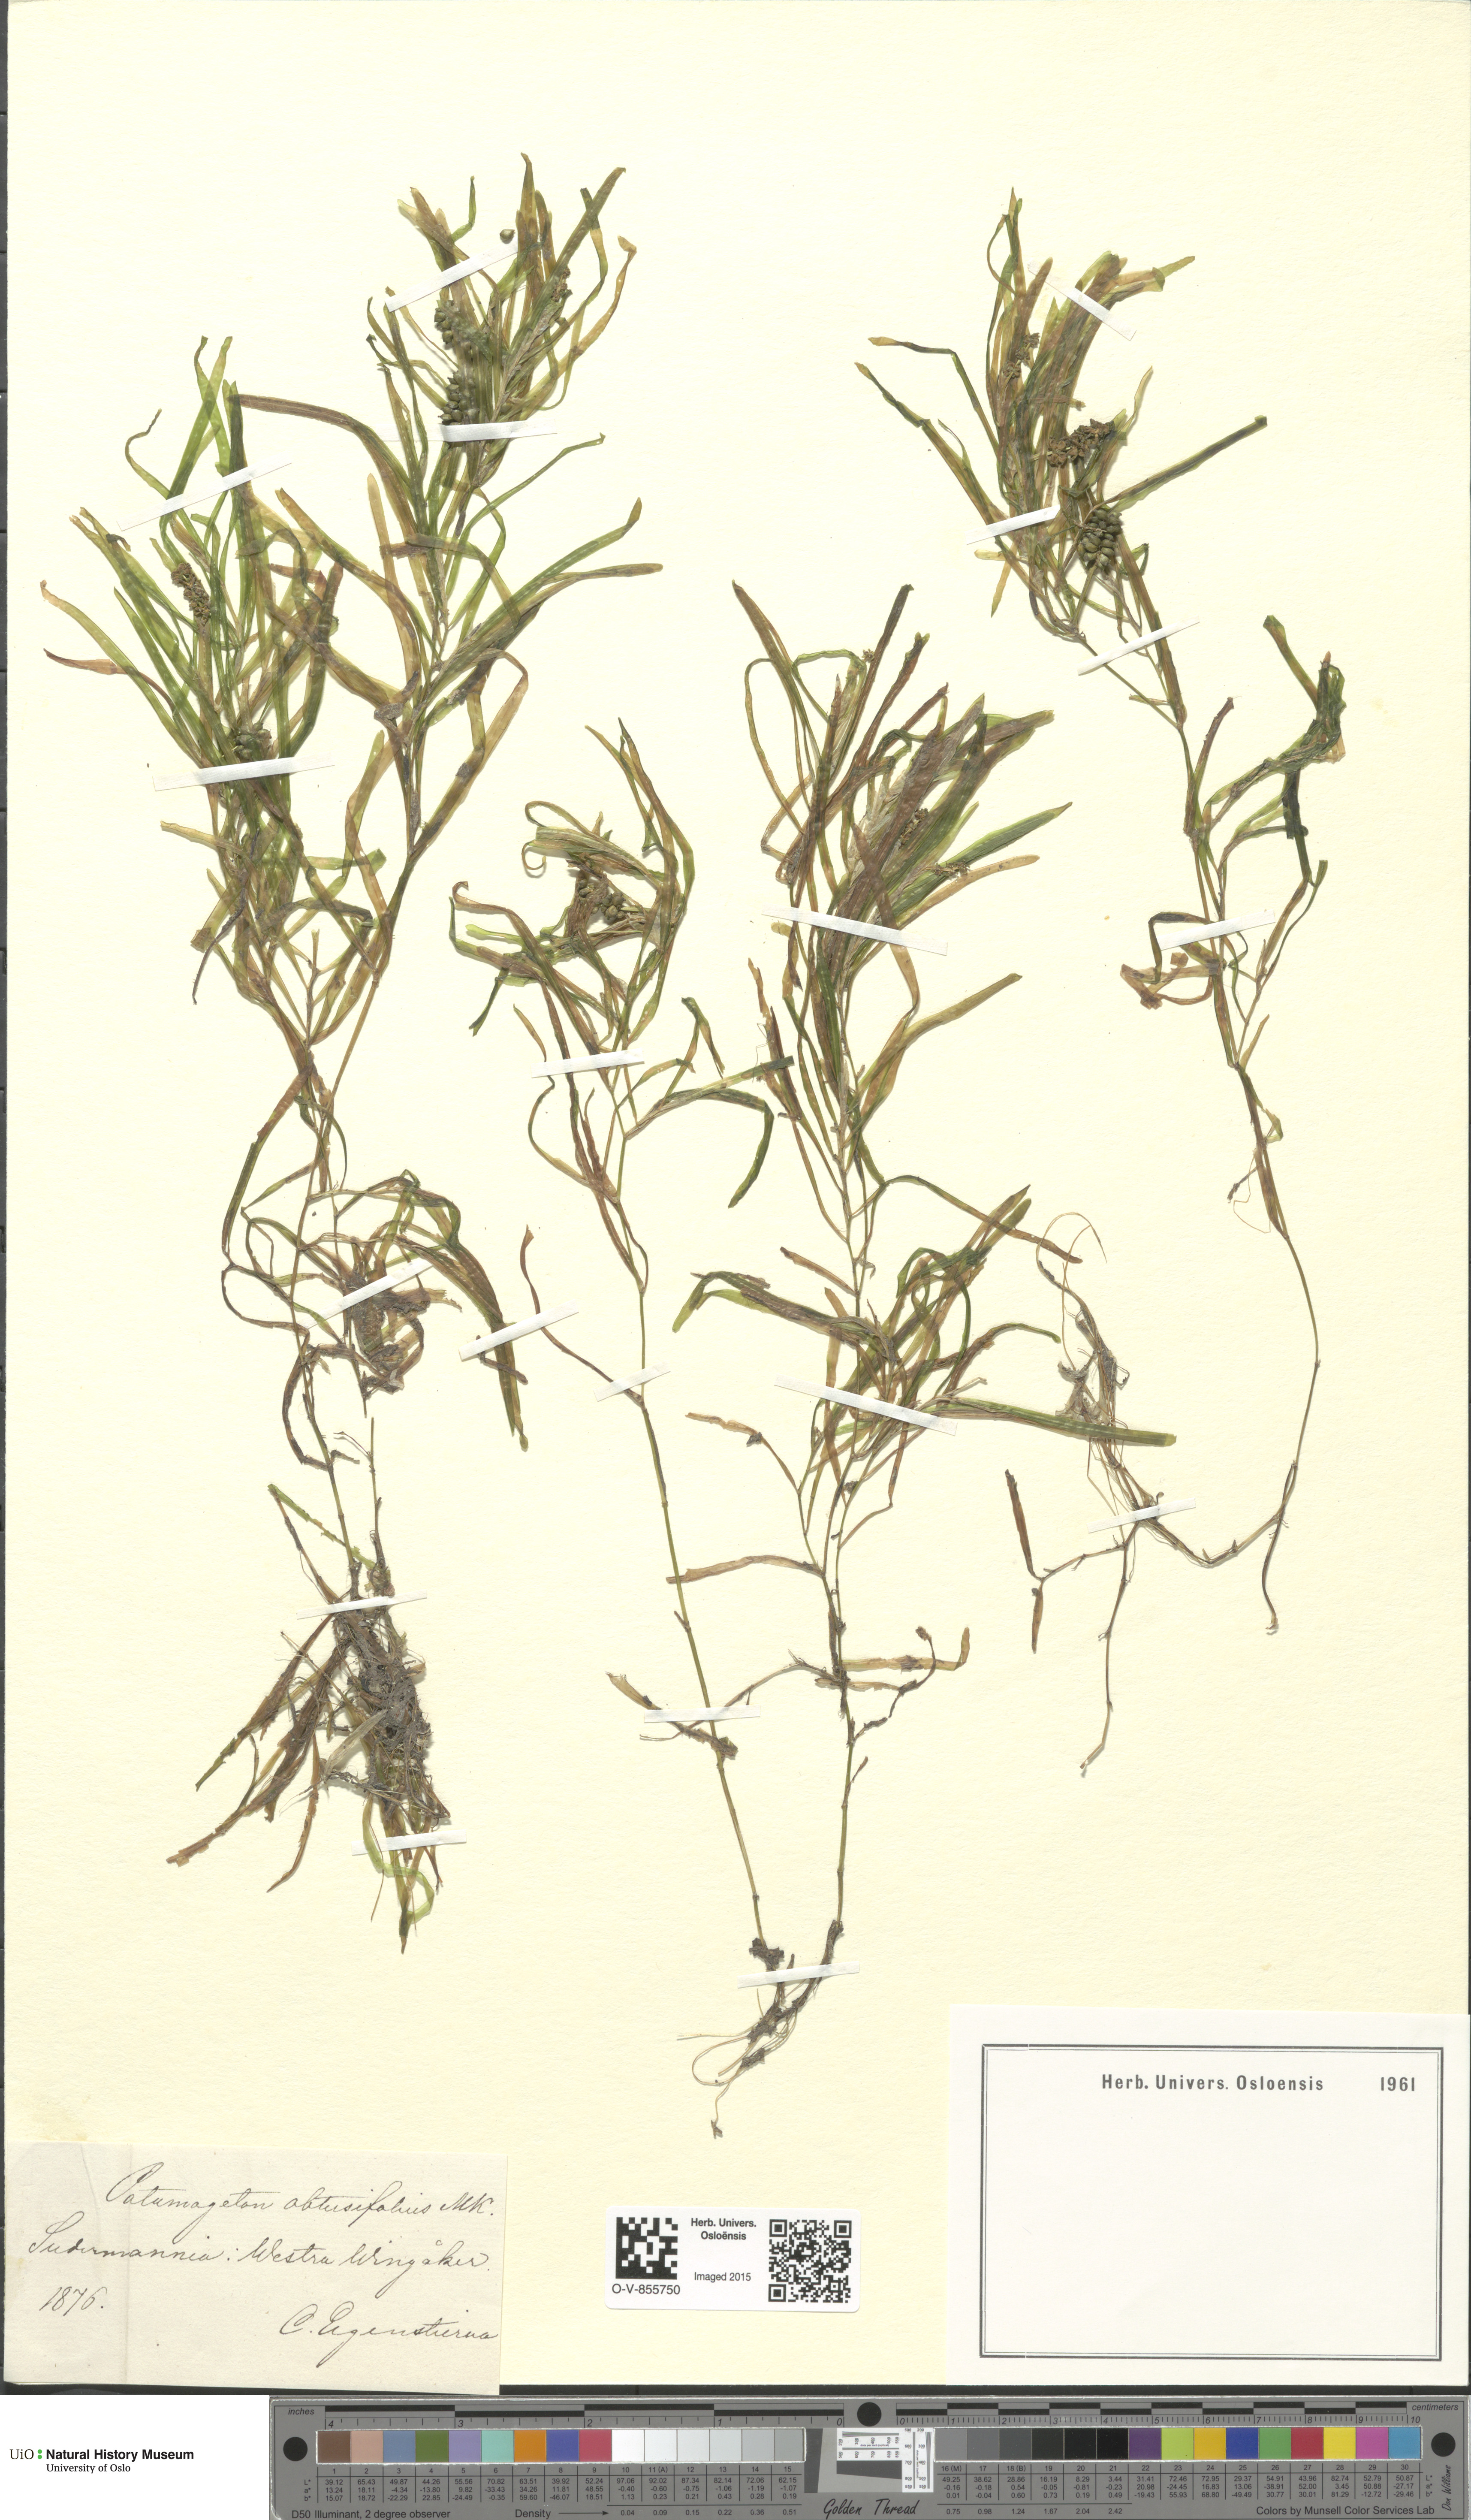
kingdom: Plantae
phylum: Tracheophyta
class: Liliopsida
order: Alismatales
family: Potamogetonaceae
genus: Potamogeton
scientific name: Potamogeton obtusifolius
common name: Blunt-leaved pondweed
